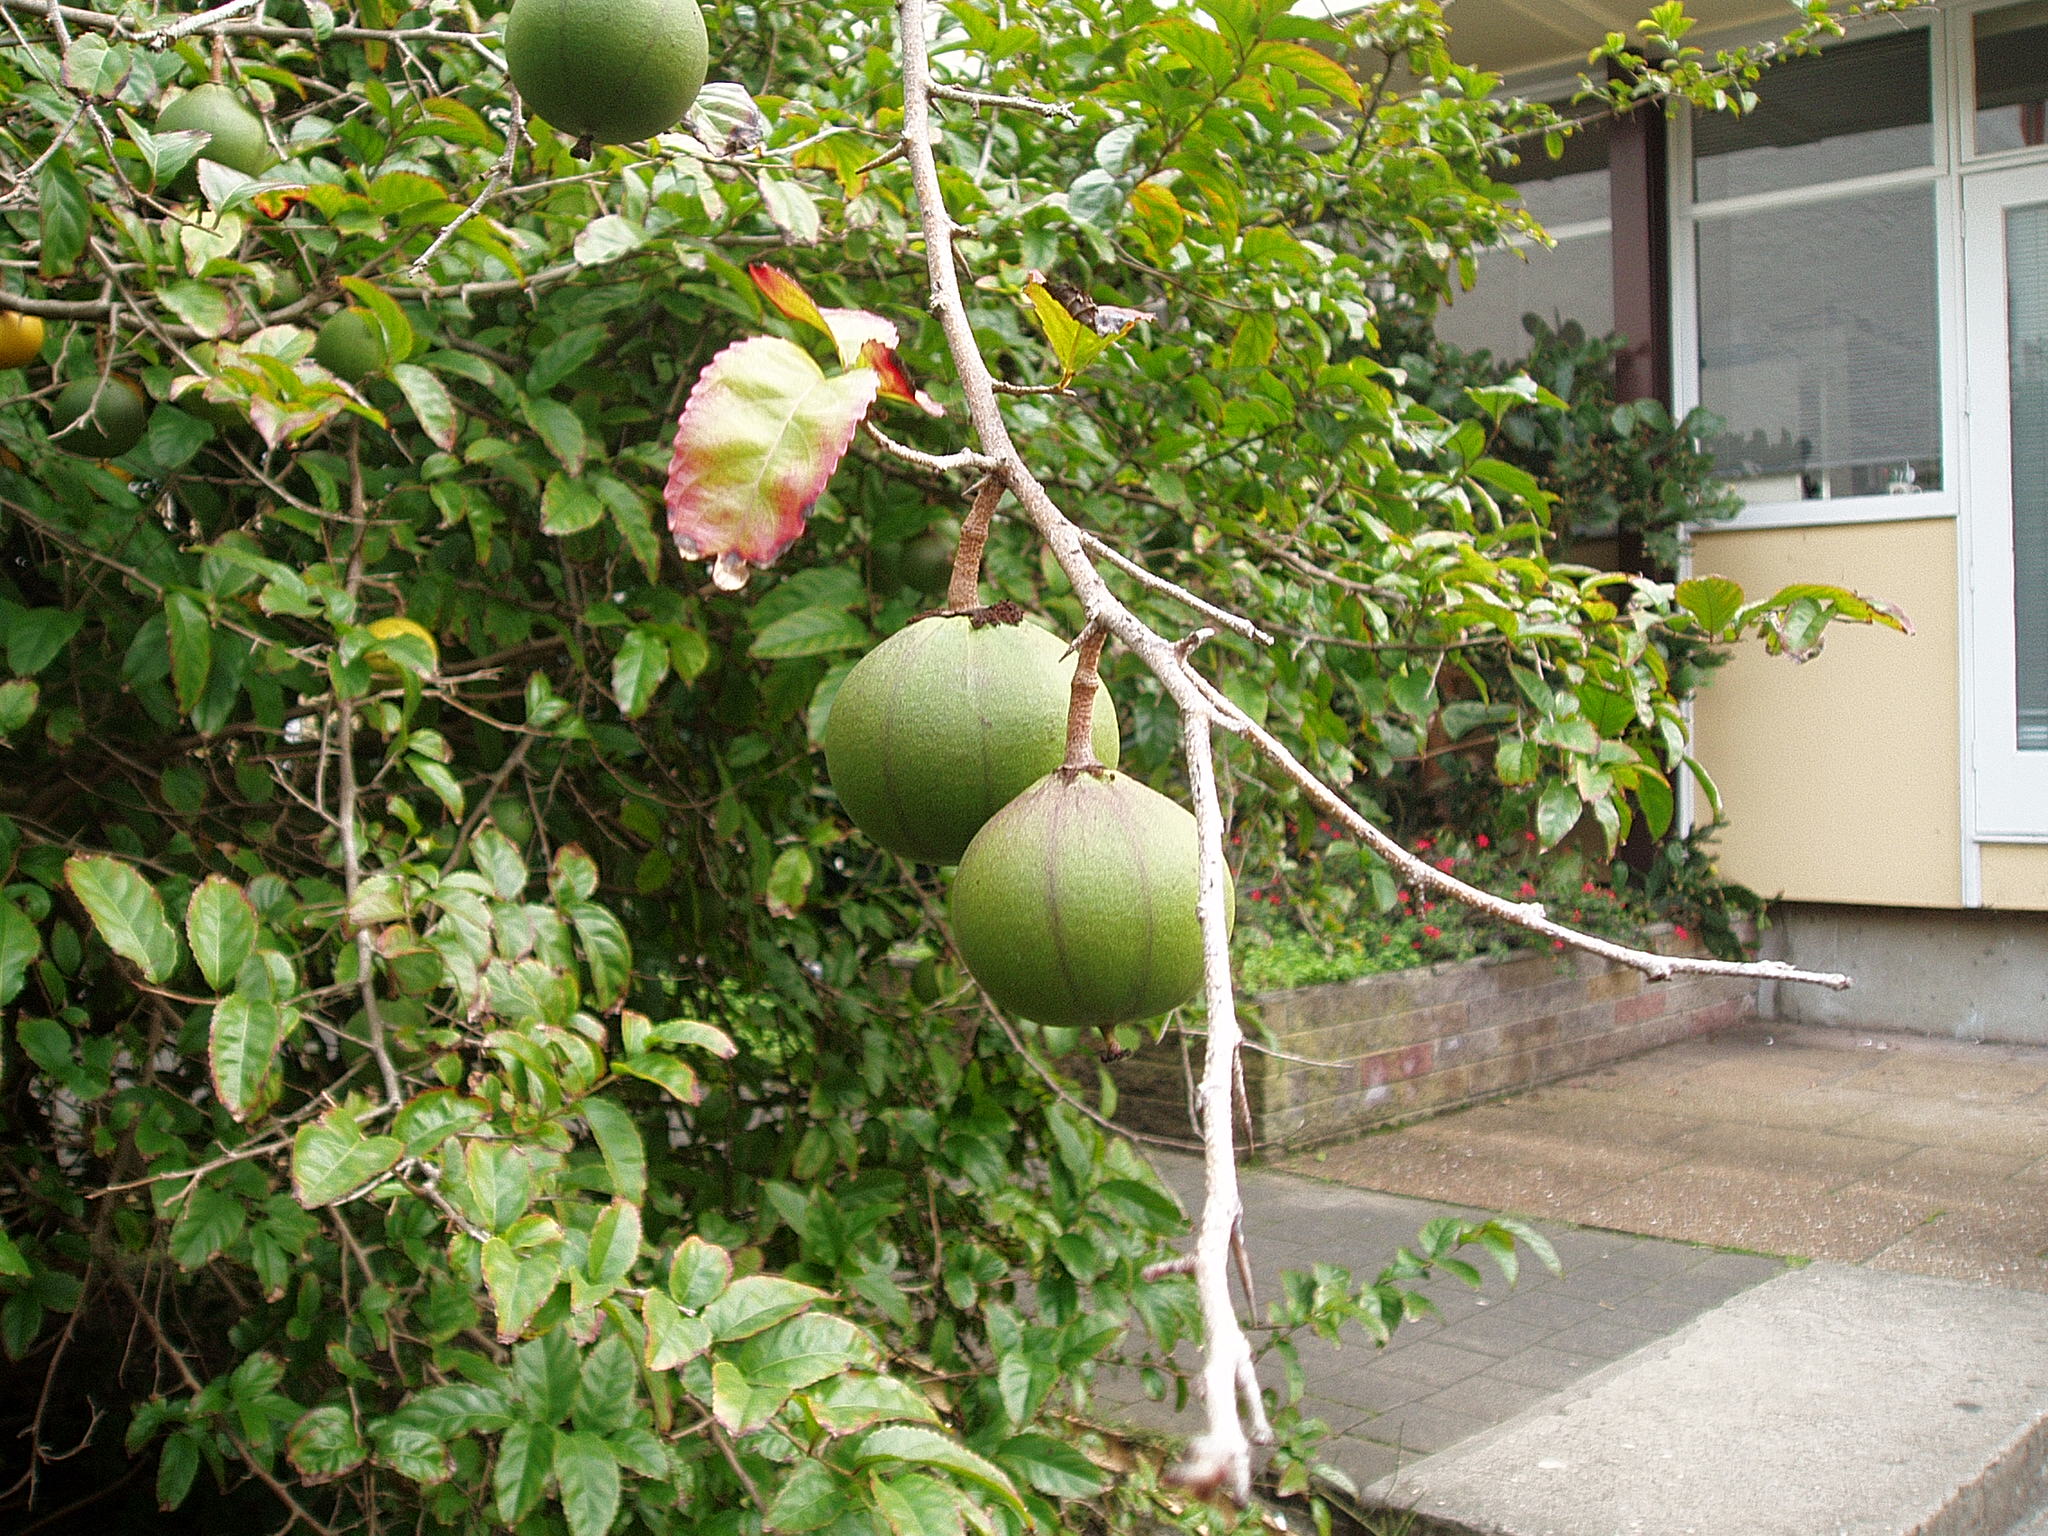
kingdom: Plantae
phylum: Tracheophyta
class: Magnoliopsida
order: Malpighiales
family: Salicaceae
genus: Oncoba
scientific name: Oncoba spinosa
